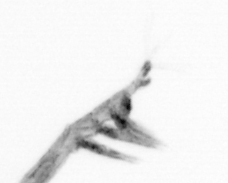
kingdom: Animalia
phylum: Arthropoda
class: Copepoda
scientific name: Copepoda
